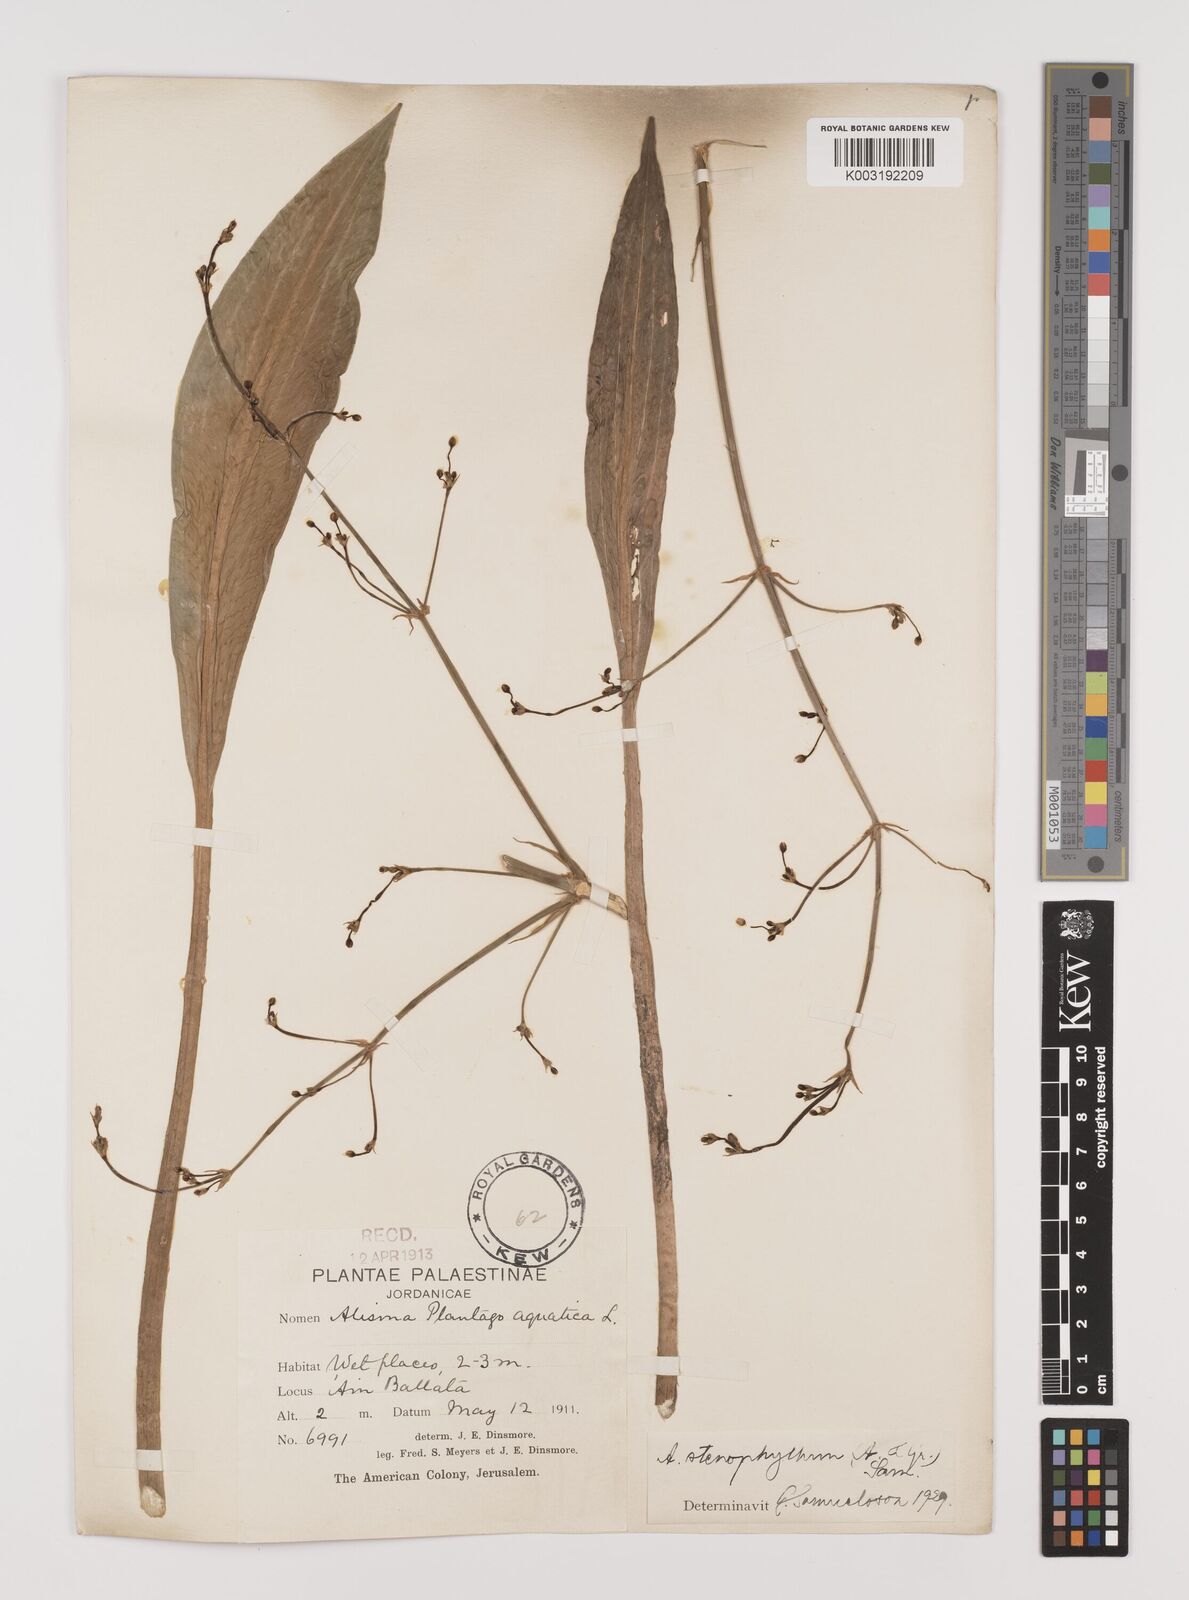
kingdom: Plantae
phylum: Tracheophyta
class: Liliopsida
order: Alismatales
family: Alismataceae
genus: Alisma
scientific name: Alisma lanceolatum
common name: Narrow-leaved water-plantain
